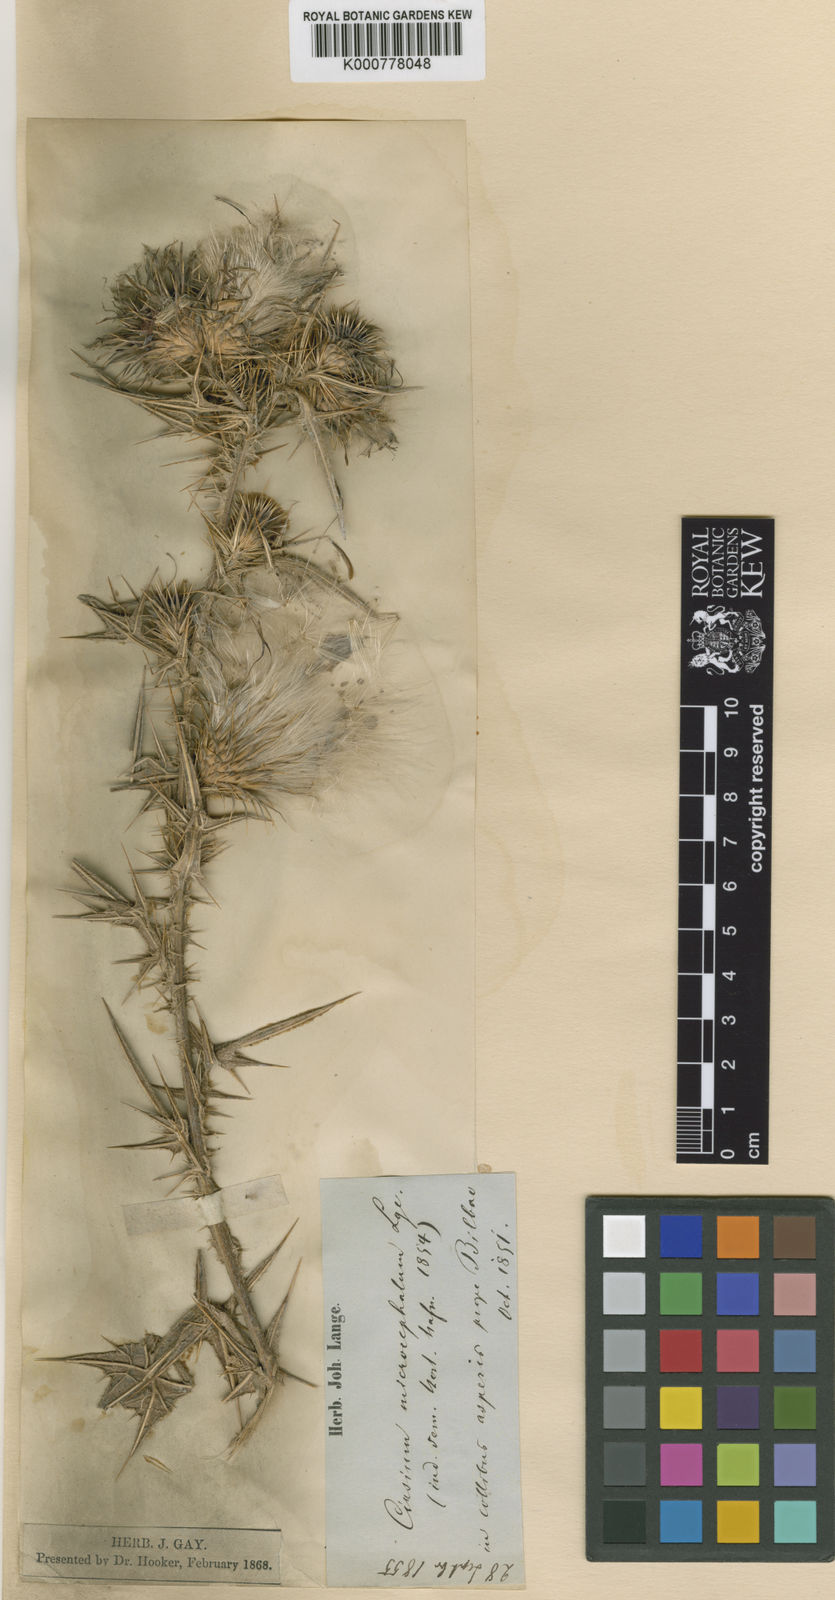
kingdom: Plantae
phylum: Tracheophyta
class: Magnoliopsida
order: Asterales
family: Asteraceae
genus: Cirsium
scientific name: Cirsium
